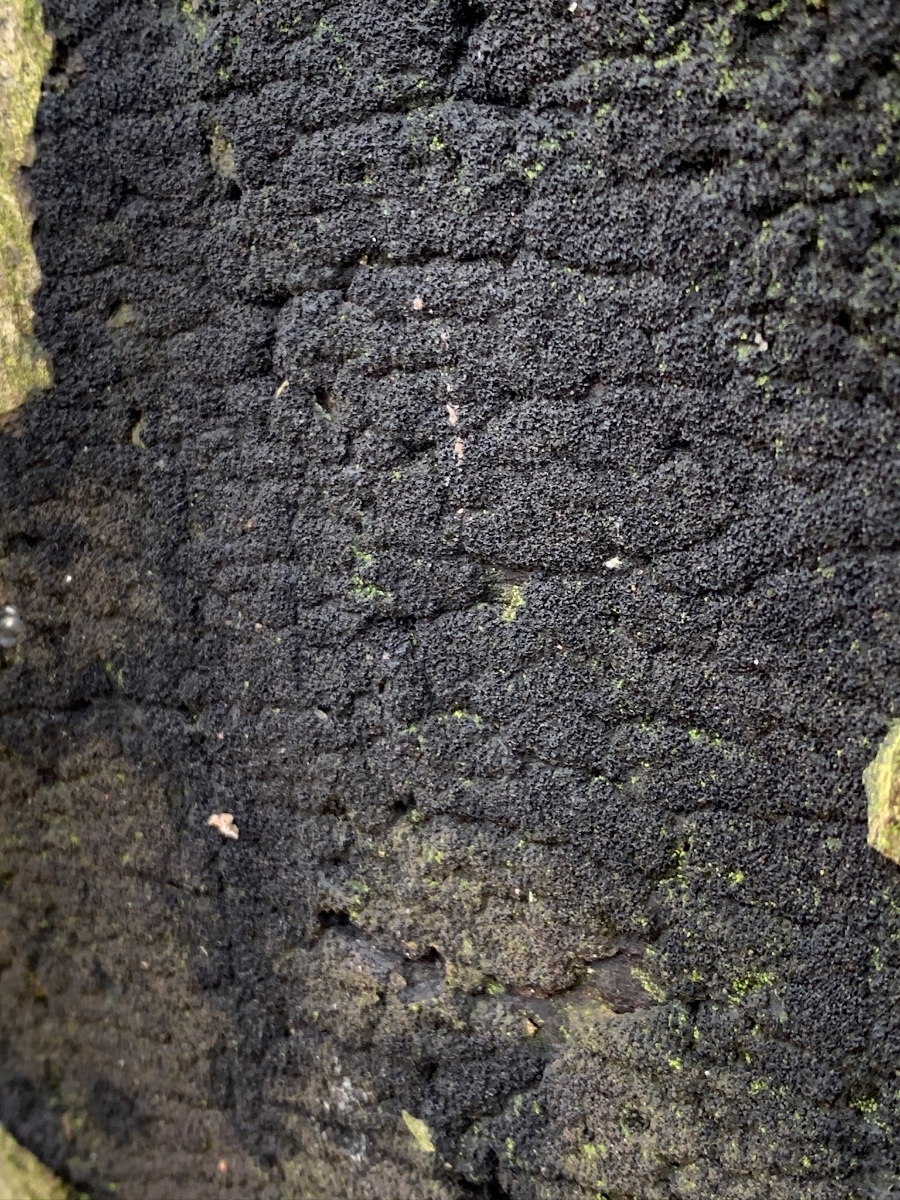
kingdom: Fungi
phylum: Ascomycota
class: Sordariomycetes
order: Xylariales
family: Diatrypaceae
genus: Eutypa
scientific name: Eutypa spinosa
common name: grov kulskorpe
